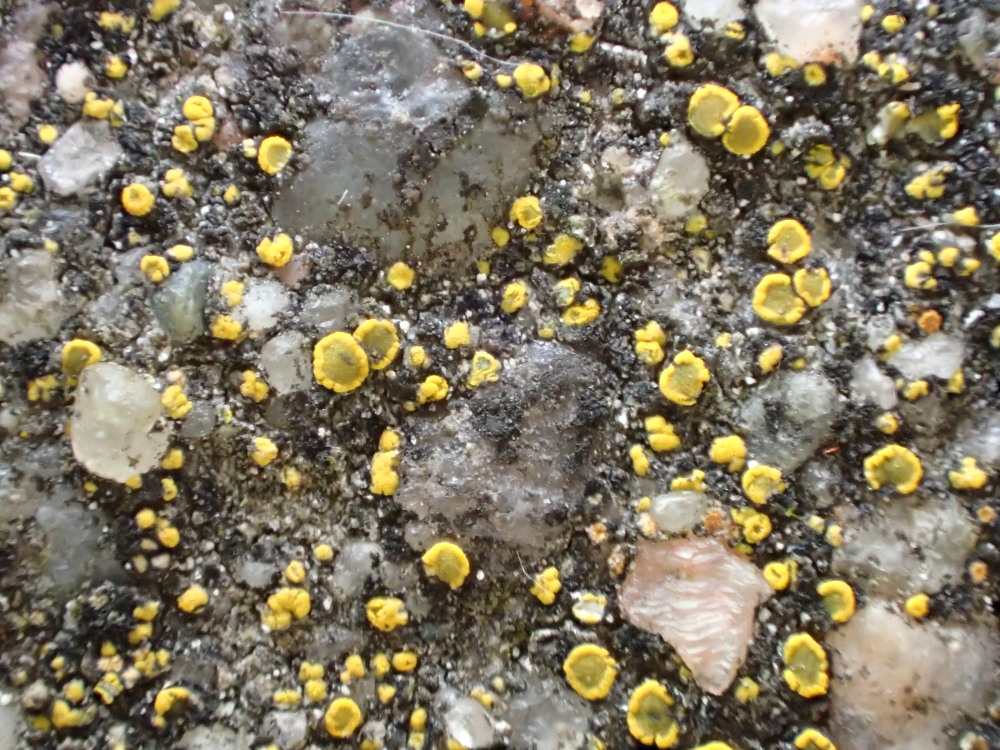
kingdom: Fungi
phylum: Ascomycota
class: Candelariomycetes
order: Candelariales
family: Candelariaceae
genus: Candelariella
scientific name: Candelariella aurella
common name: liden æggeblommelav
